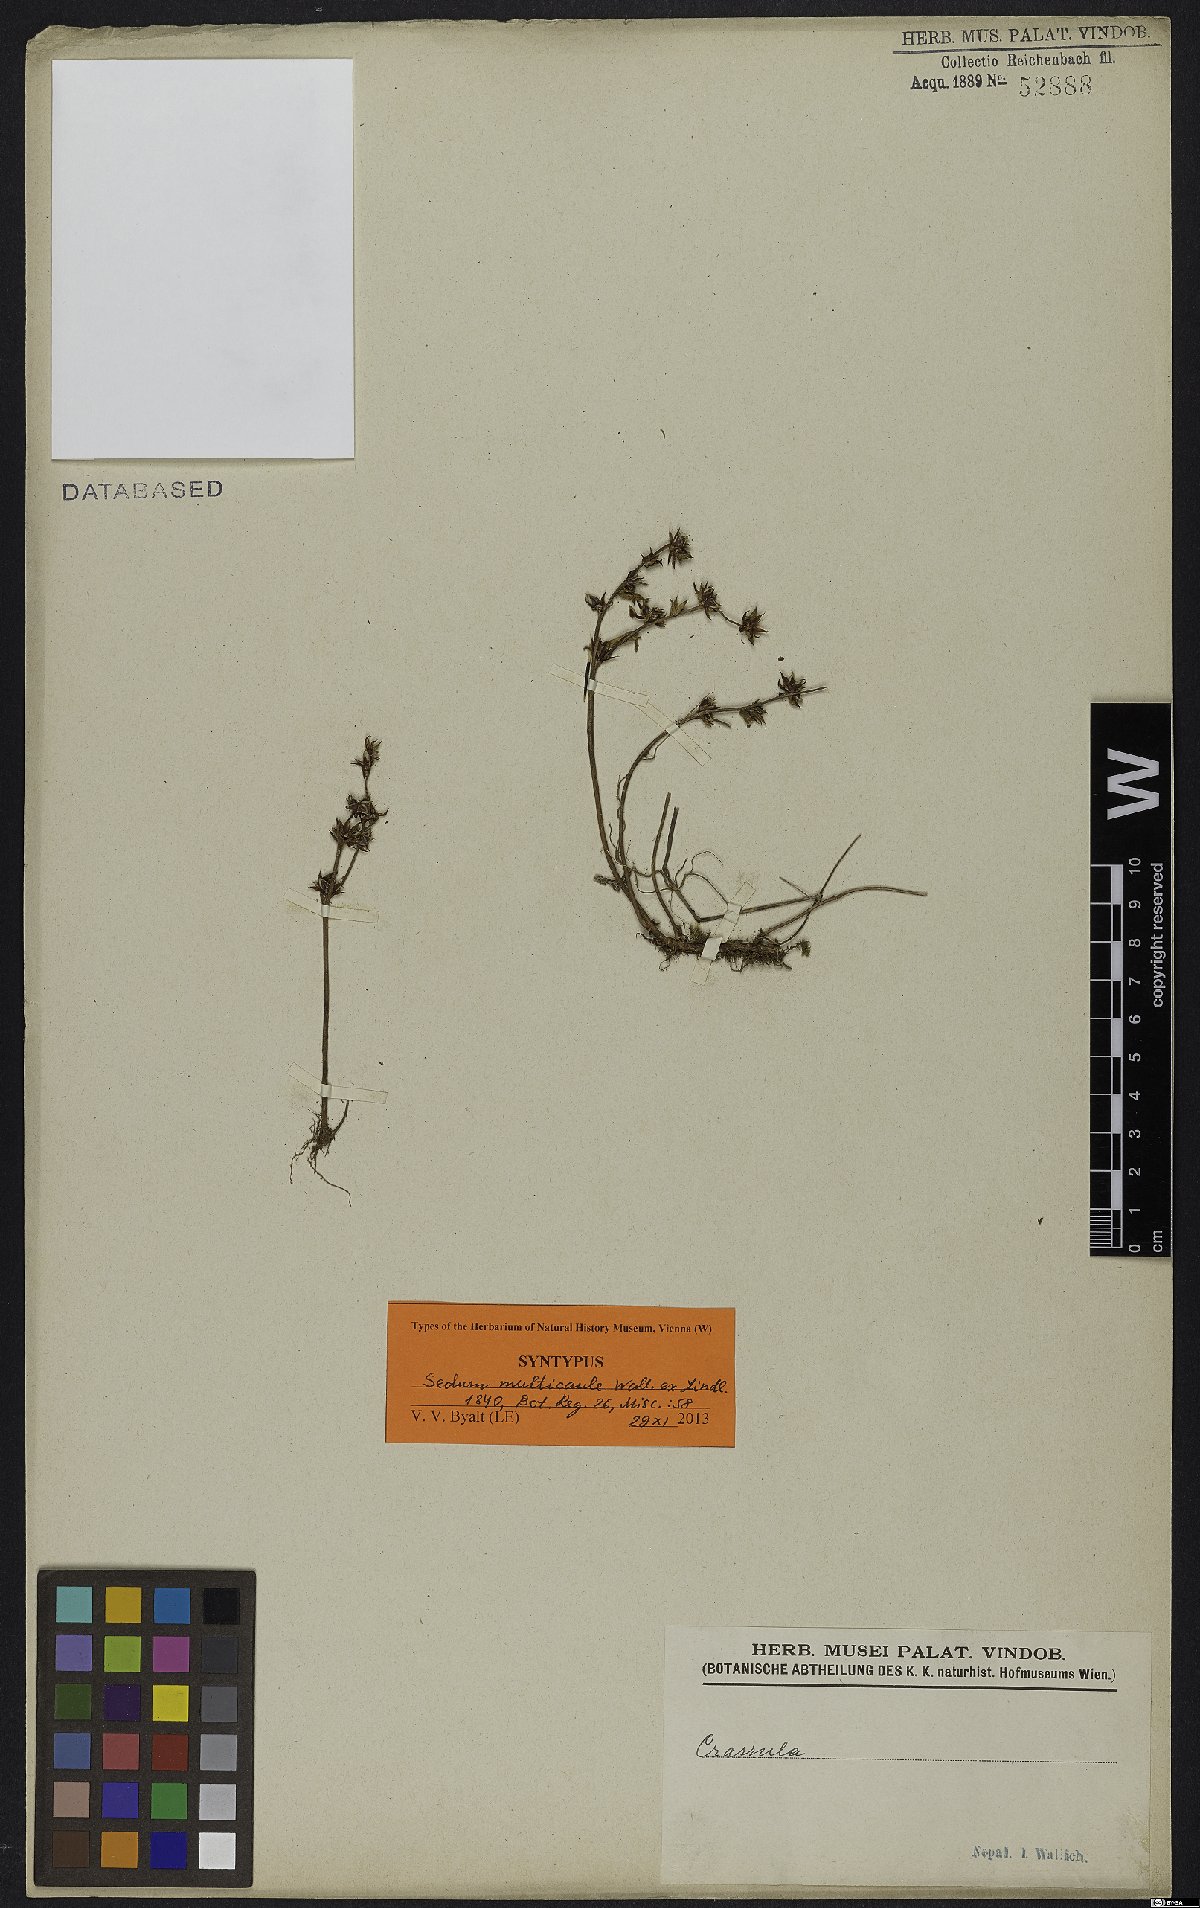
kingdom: Plantae
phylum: Tracheophyta
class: Magnoliopsida
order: Saxifragales
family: Crassulaceae
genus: Sedum
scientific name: Sedum multicaule
